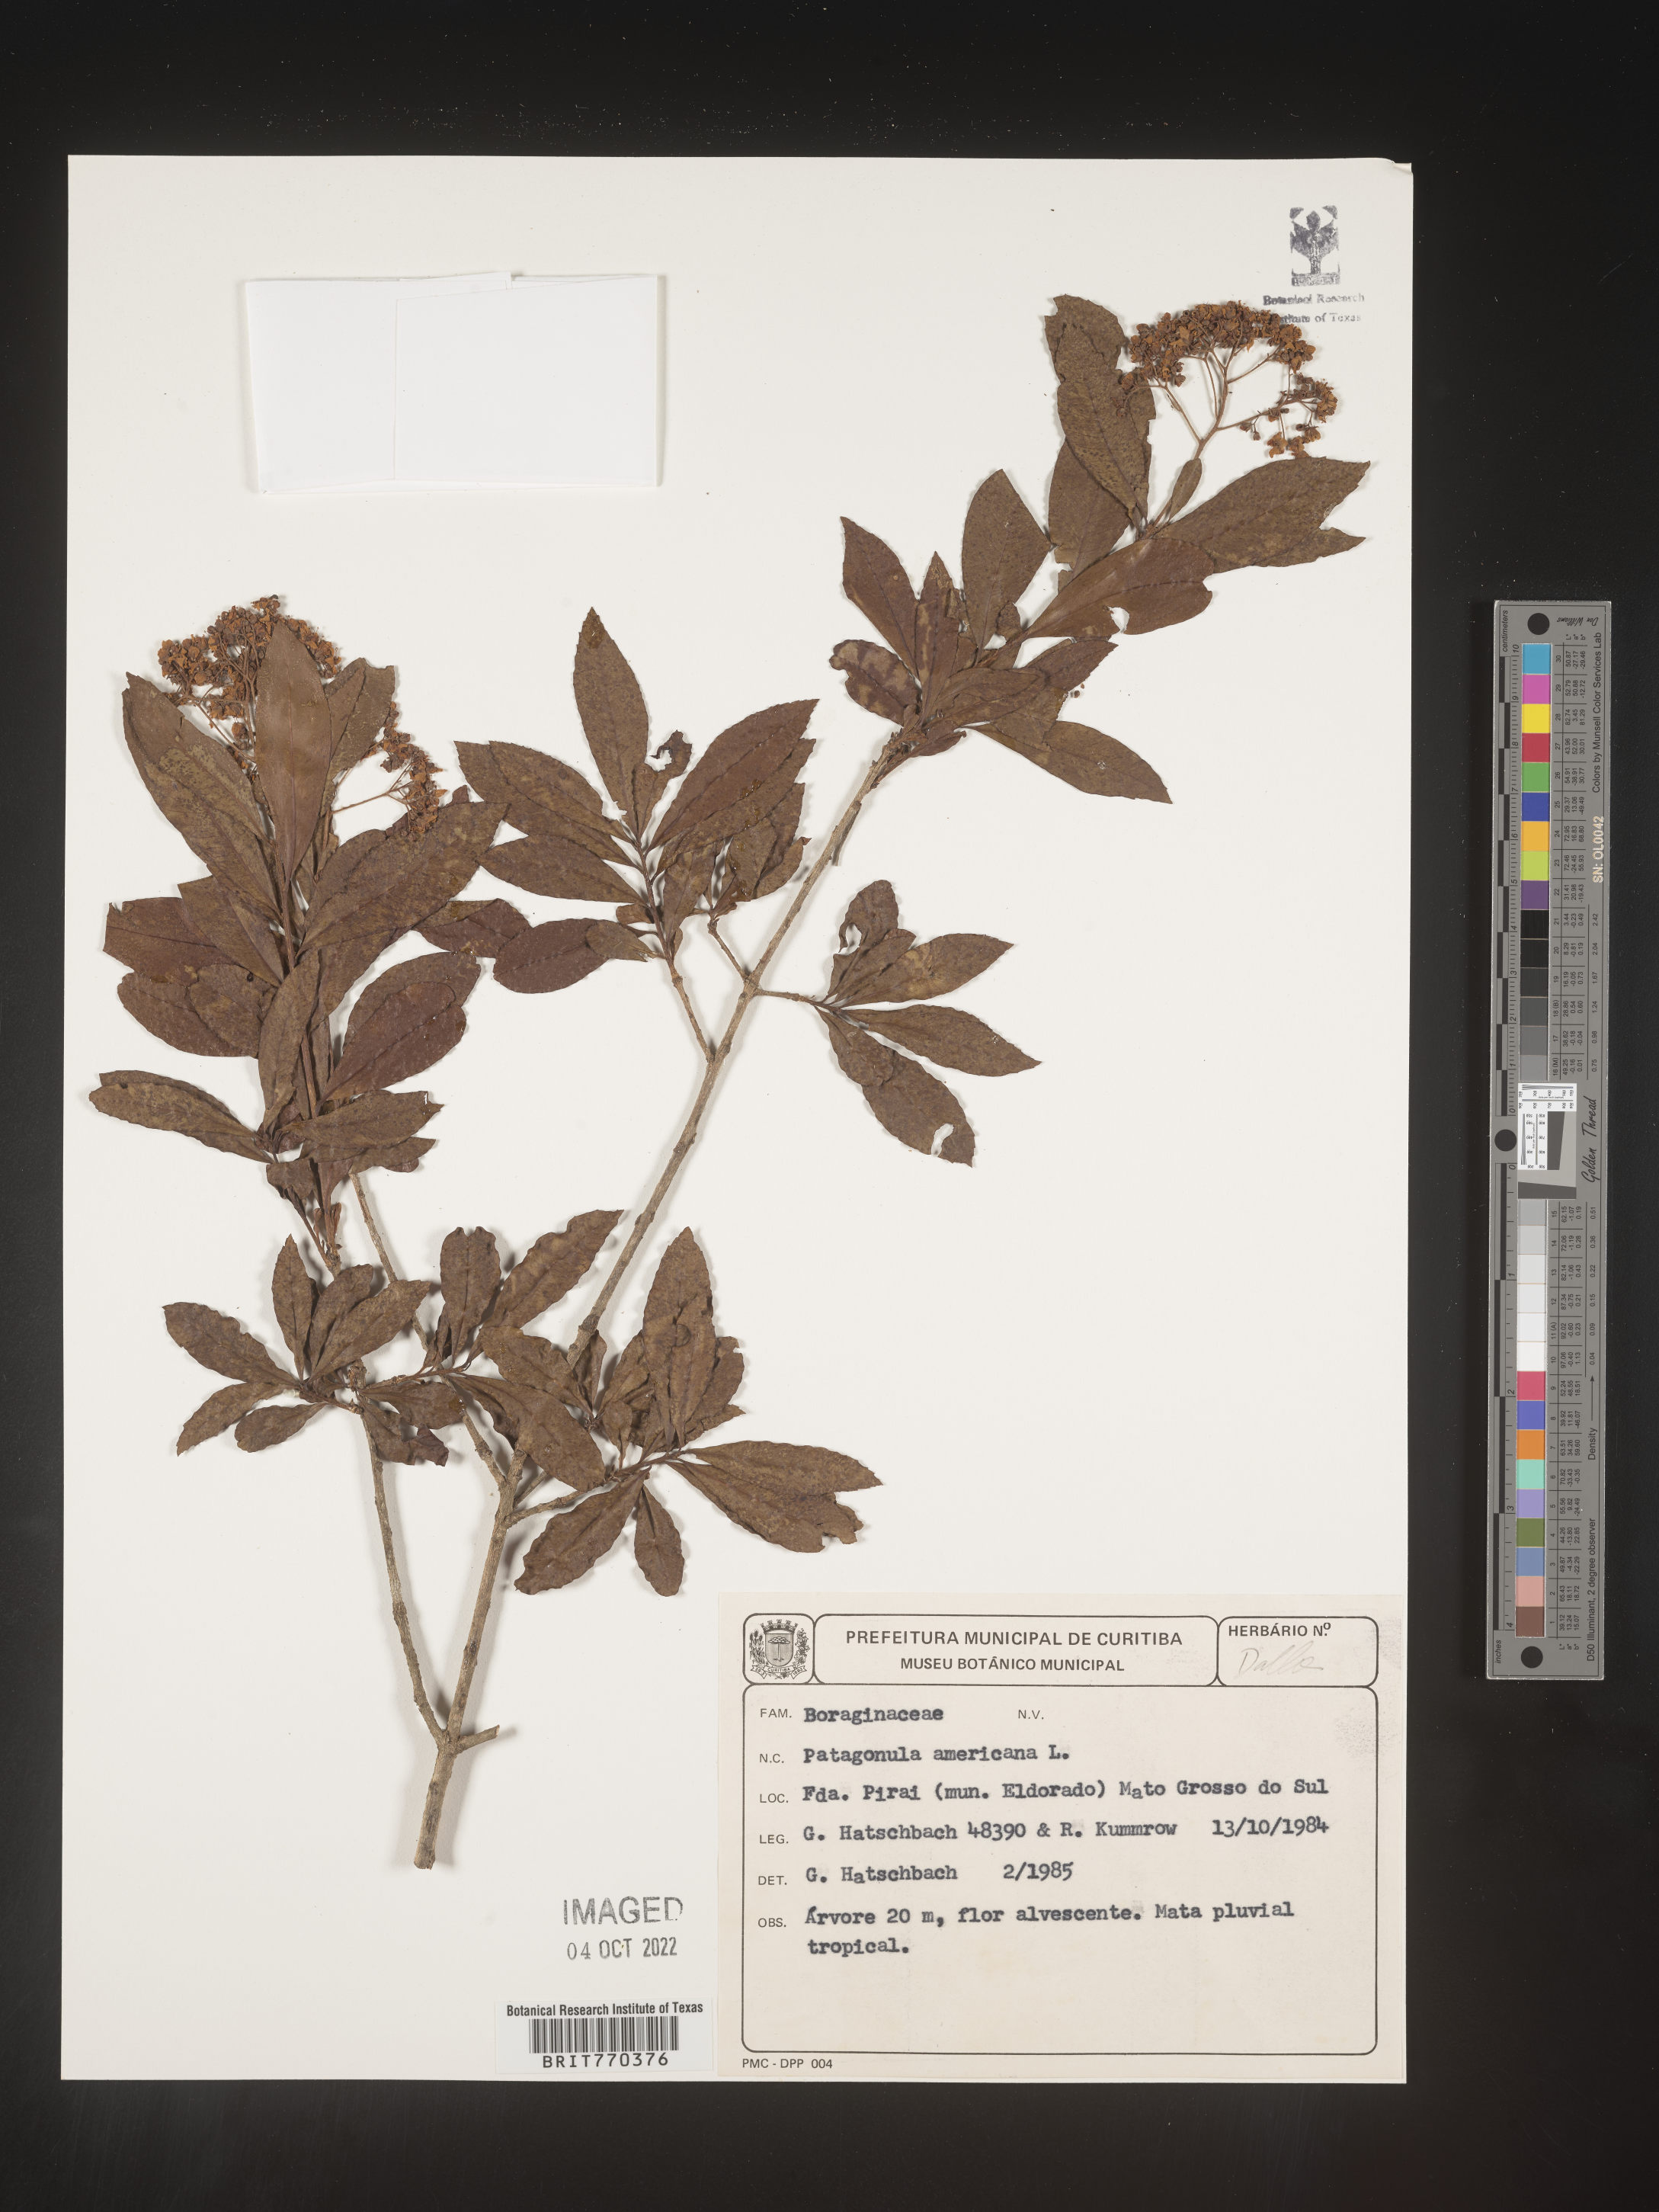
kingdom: Plantae
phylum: Tracheophyta
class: Magnoliopsida
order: Boraginales
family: Cordiaceae
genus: Cordia
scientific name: Cordia americana
